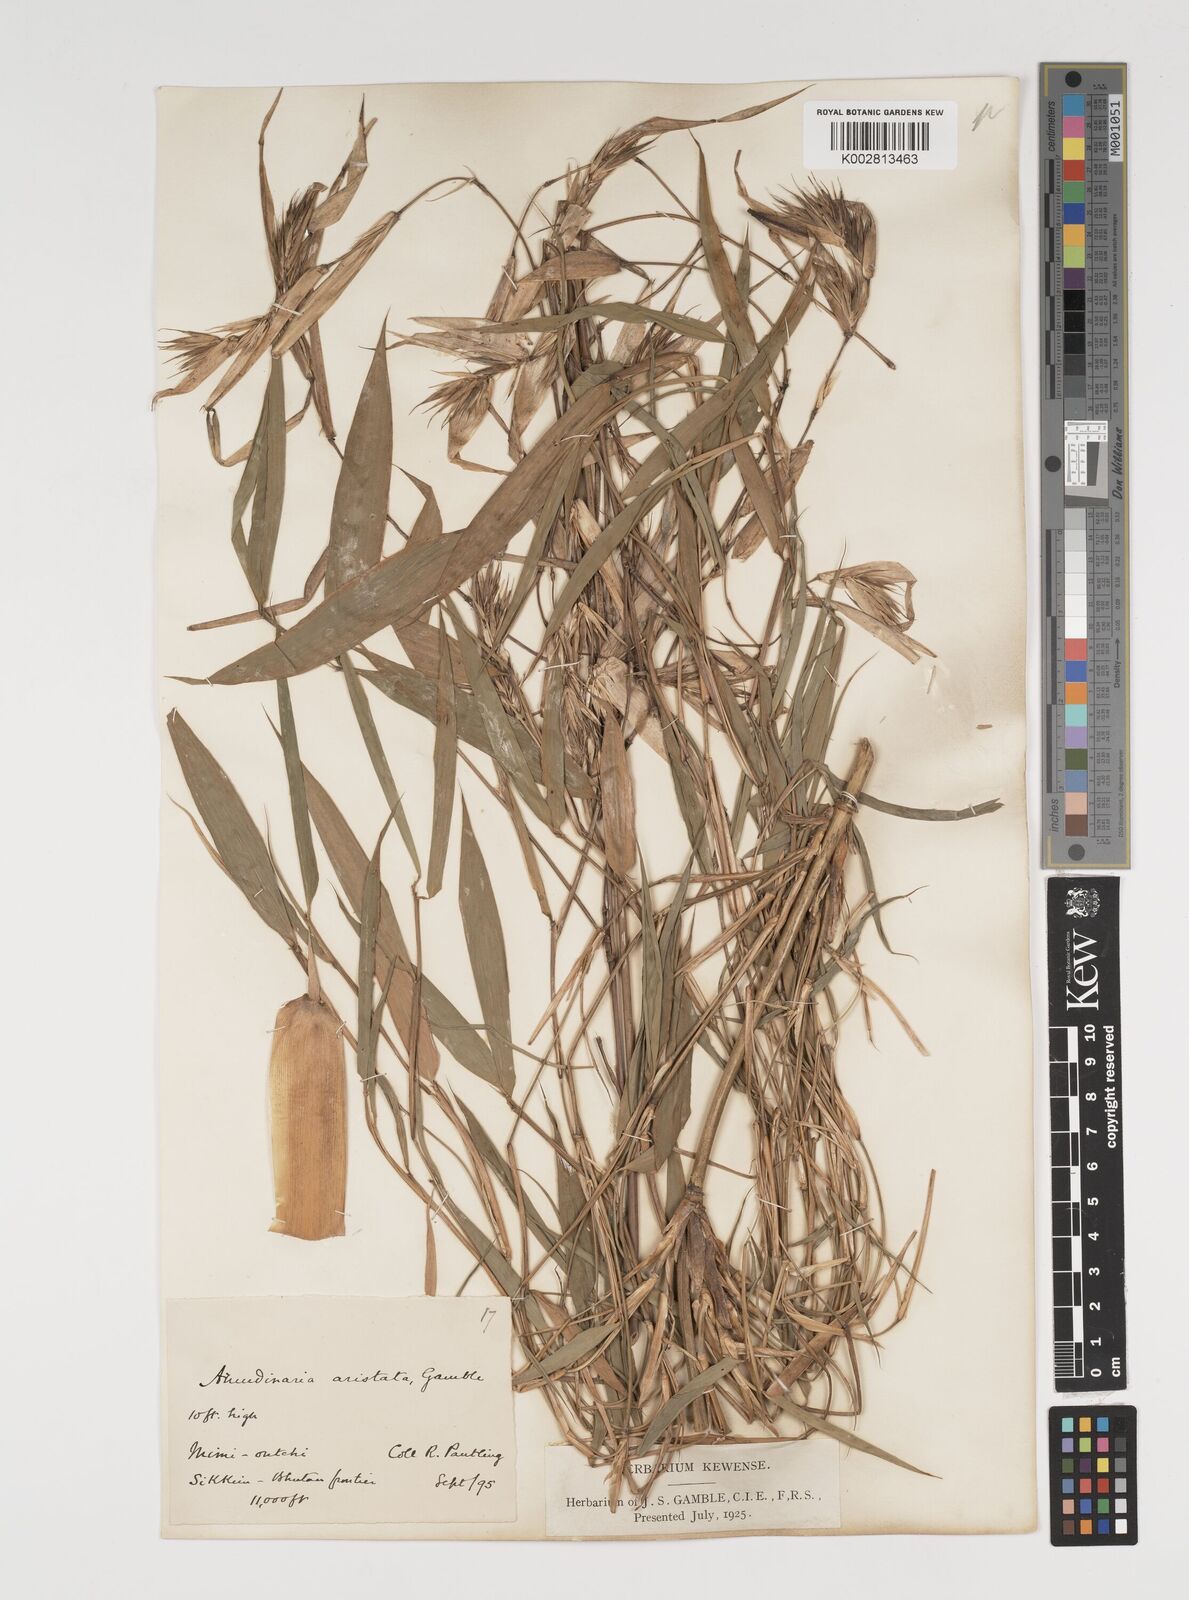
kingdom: Plantae
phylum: Tracheophyta
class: Liliopsida
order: Poales
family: Poaceae
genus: Thamnocalamus
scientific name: Thamnocalamus spathiflorus
